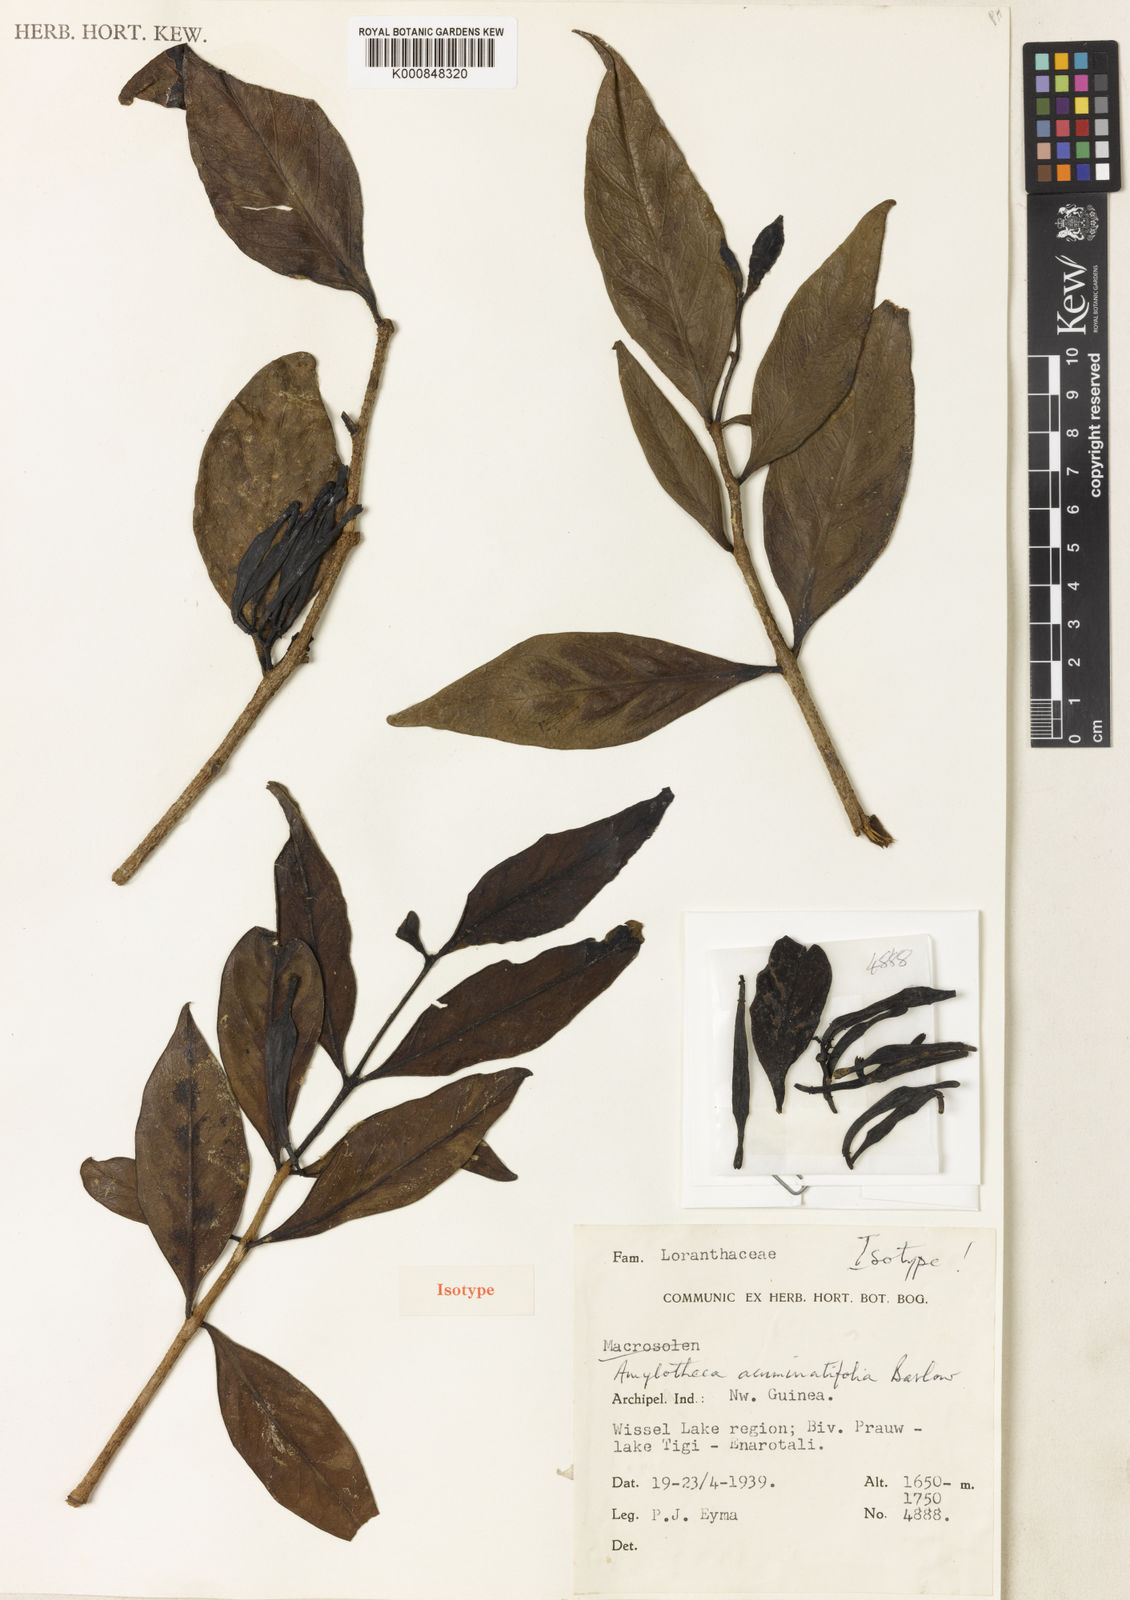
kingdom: Plantae
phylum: Tracheophyta
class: Magnoliopsida
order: Santalales
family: Loranthaceae
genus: Amylotheca
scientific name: Amylotheca acuminatifolia
